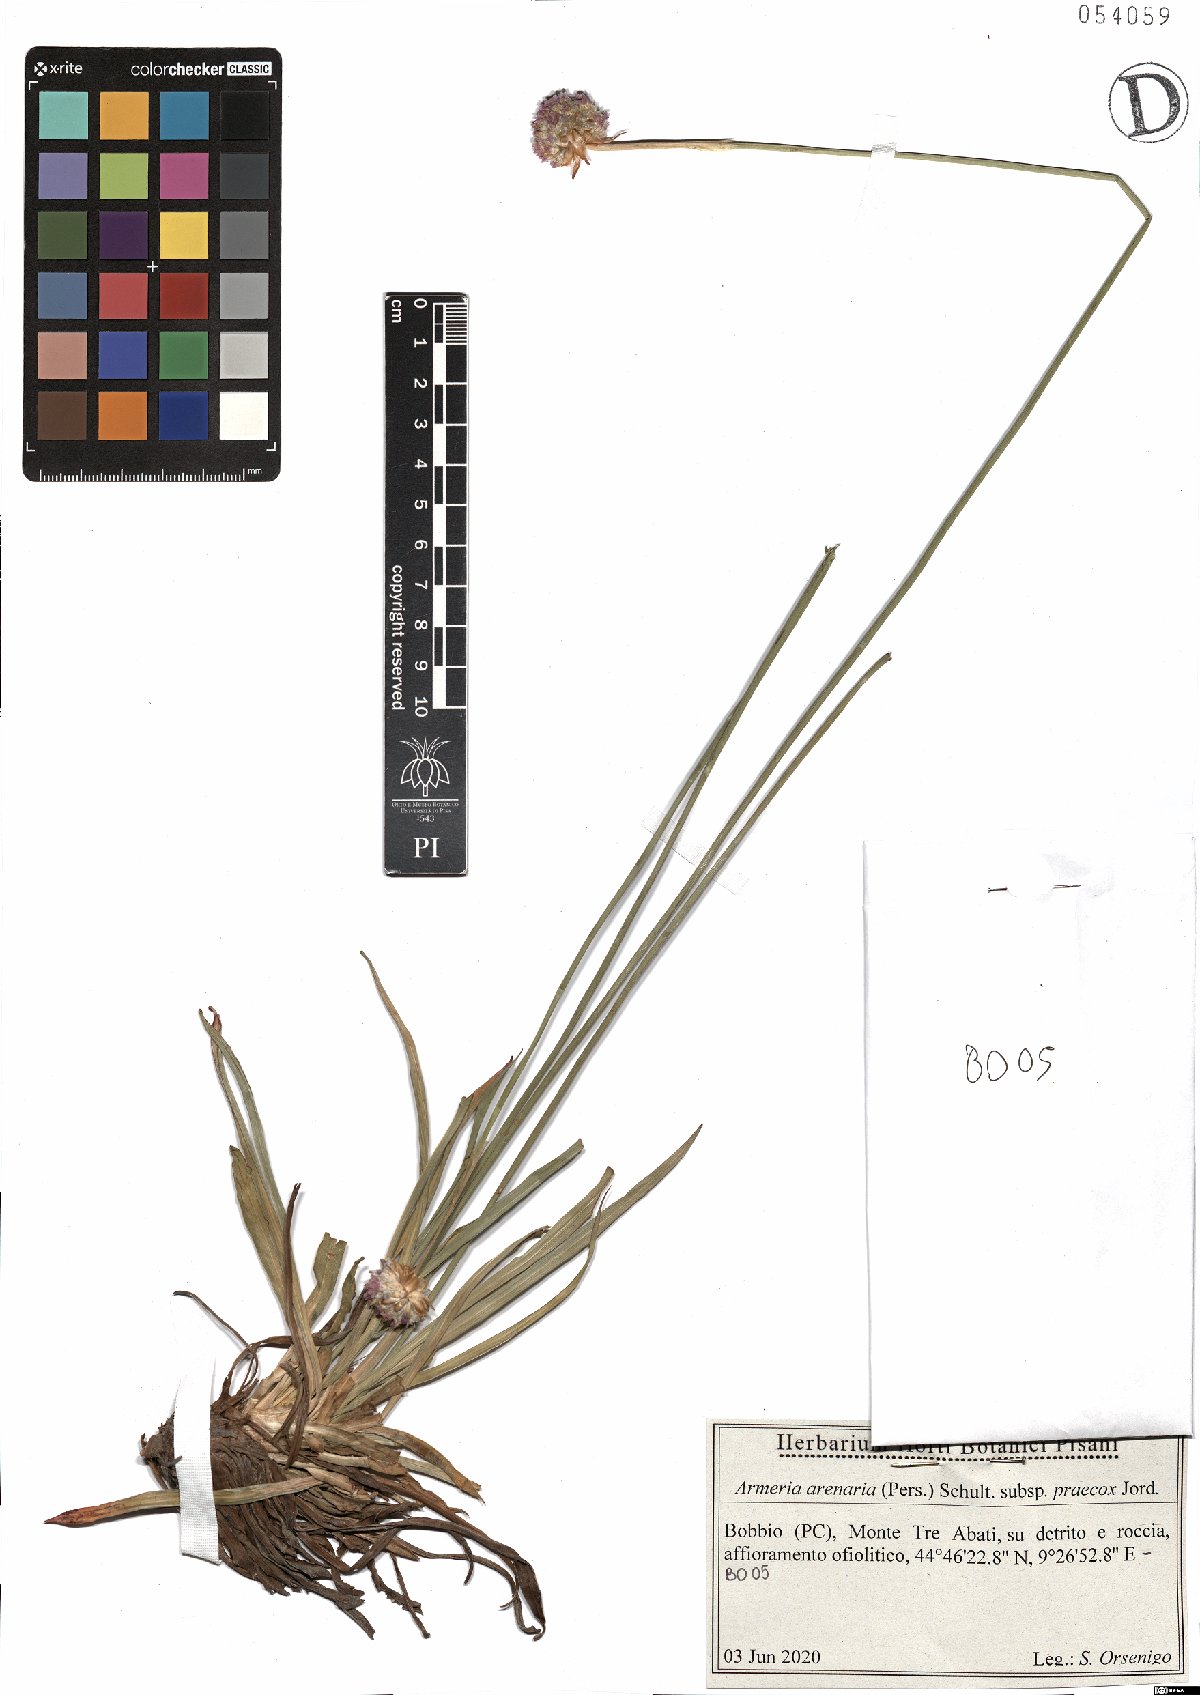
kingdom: Plantae
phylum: Tracheophyta
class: Magnoliopsida
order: Caryophyllales
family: Plumbaginaceae
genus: Armeria
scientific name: Armeria arenaria
